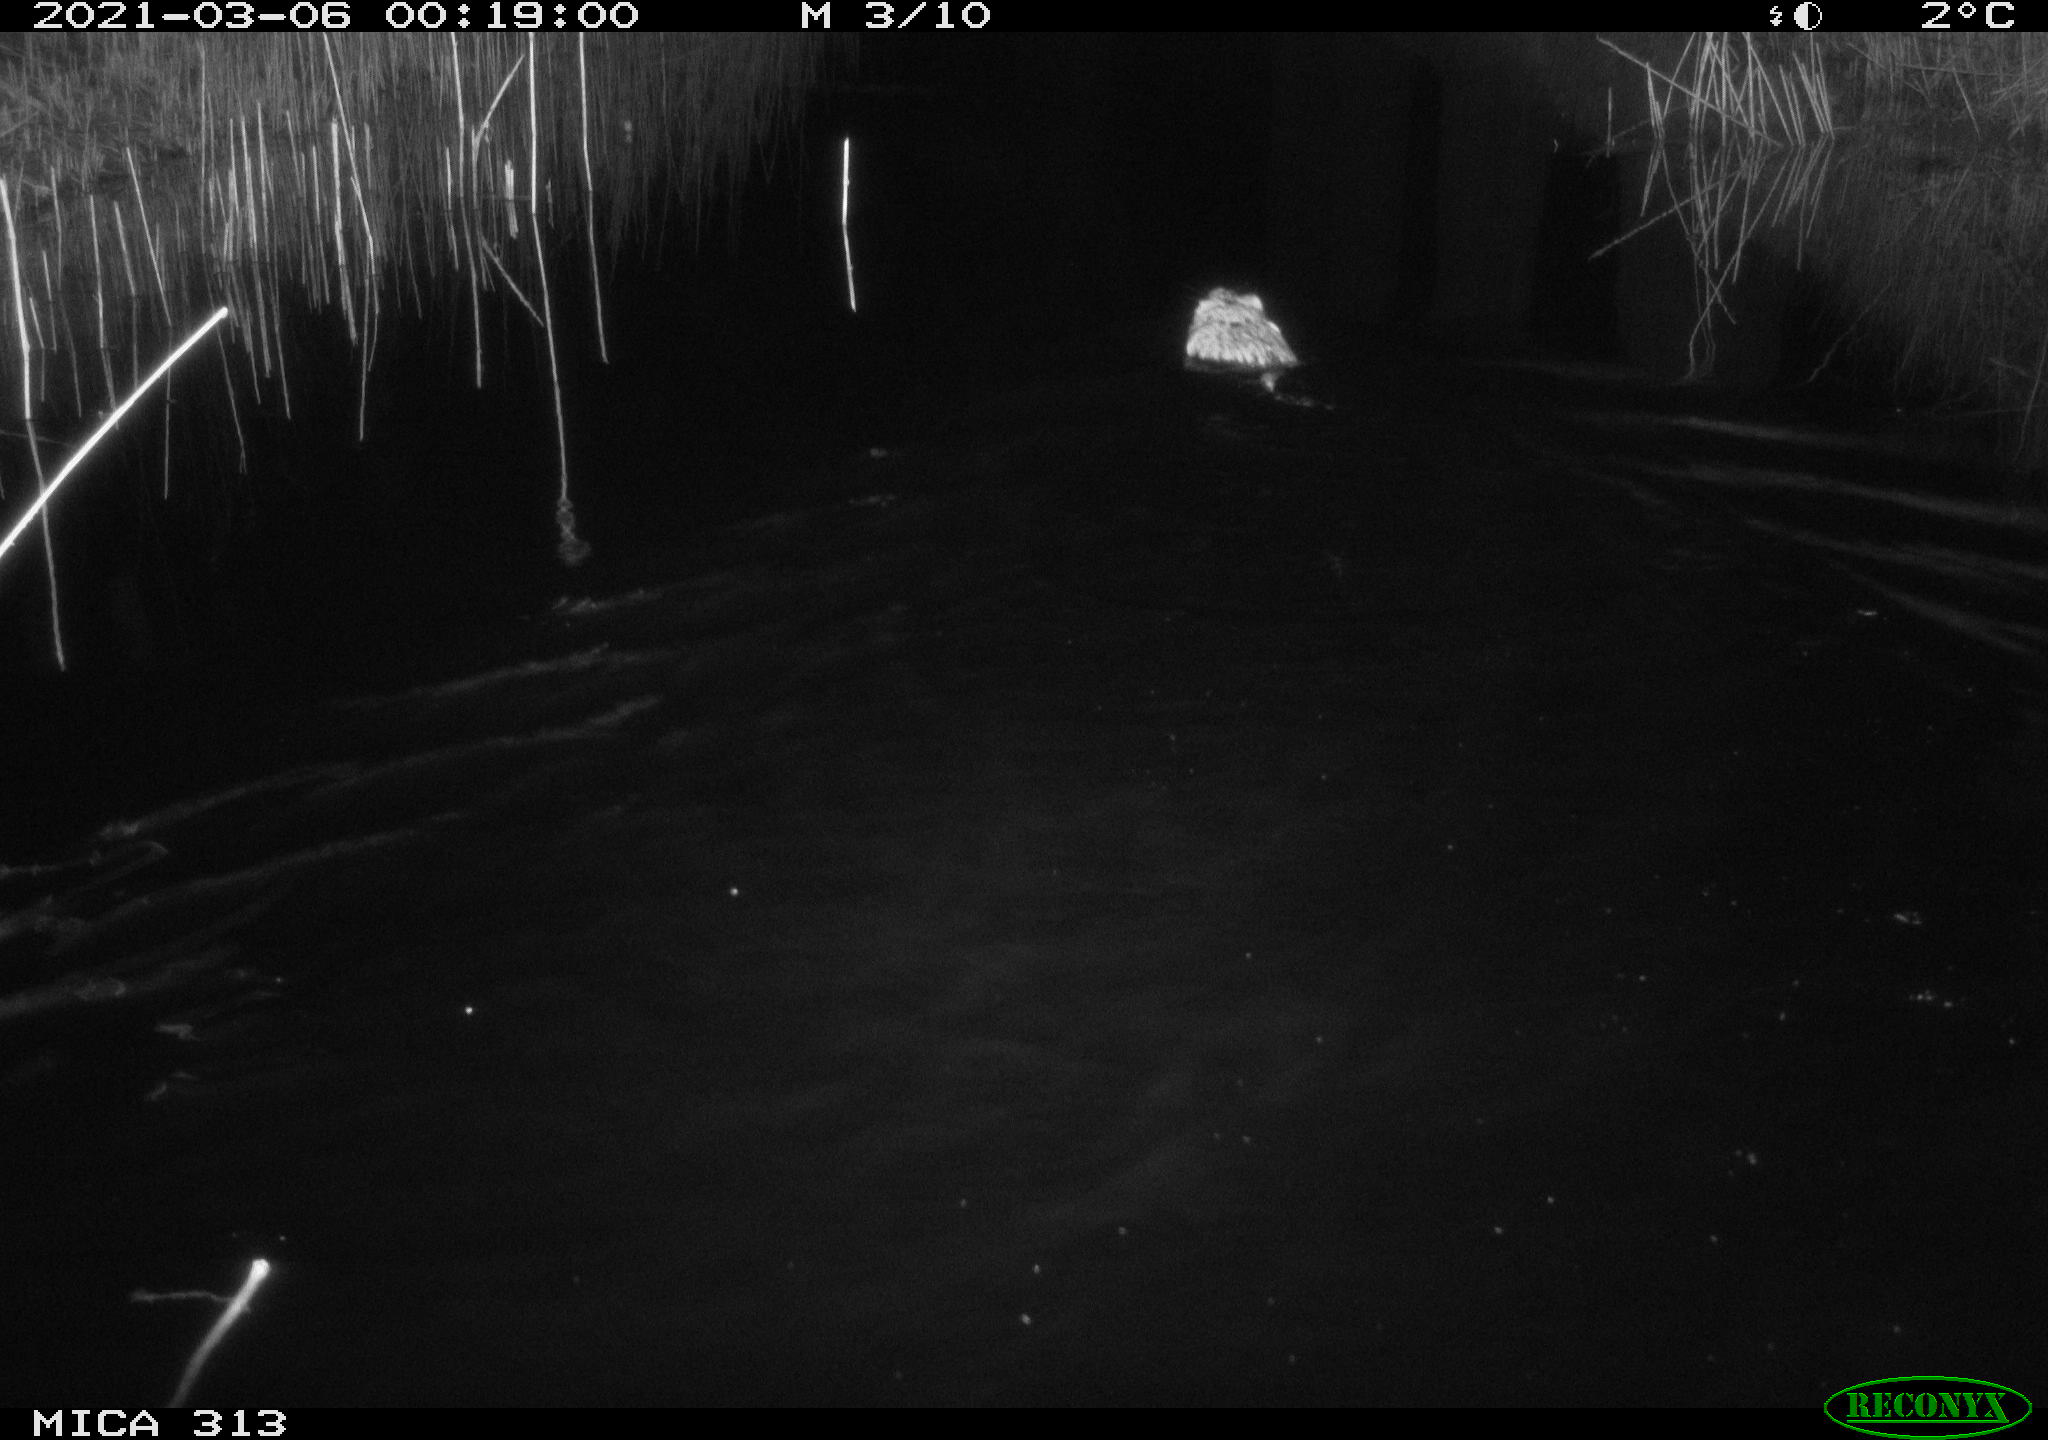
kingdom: Animalia
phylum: Chordata
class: Mammalia
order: Rodentia
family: Cricetidae
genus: Ondatra
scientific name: Ondatra zibethicus
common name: Muskrat
